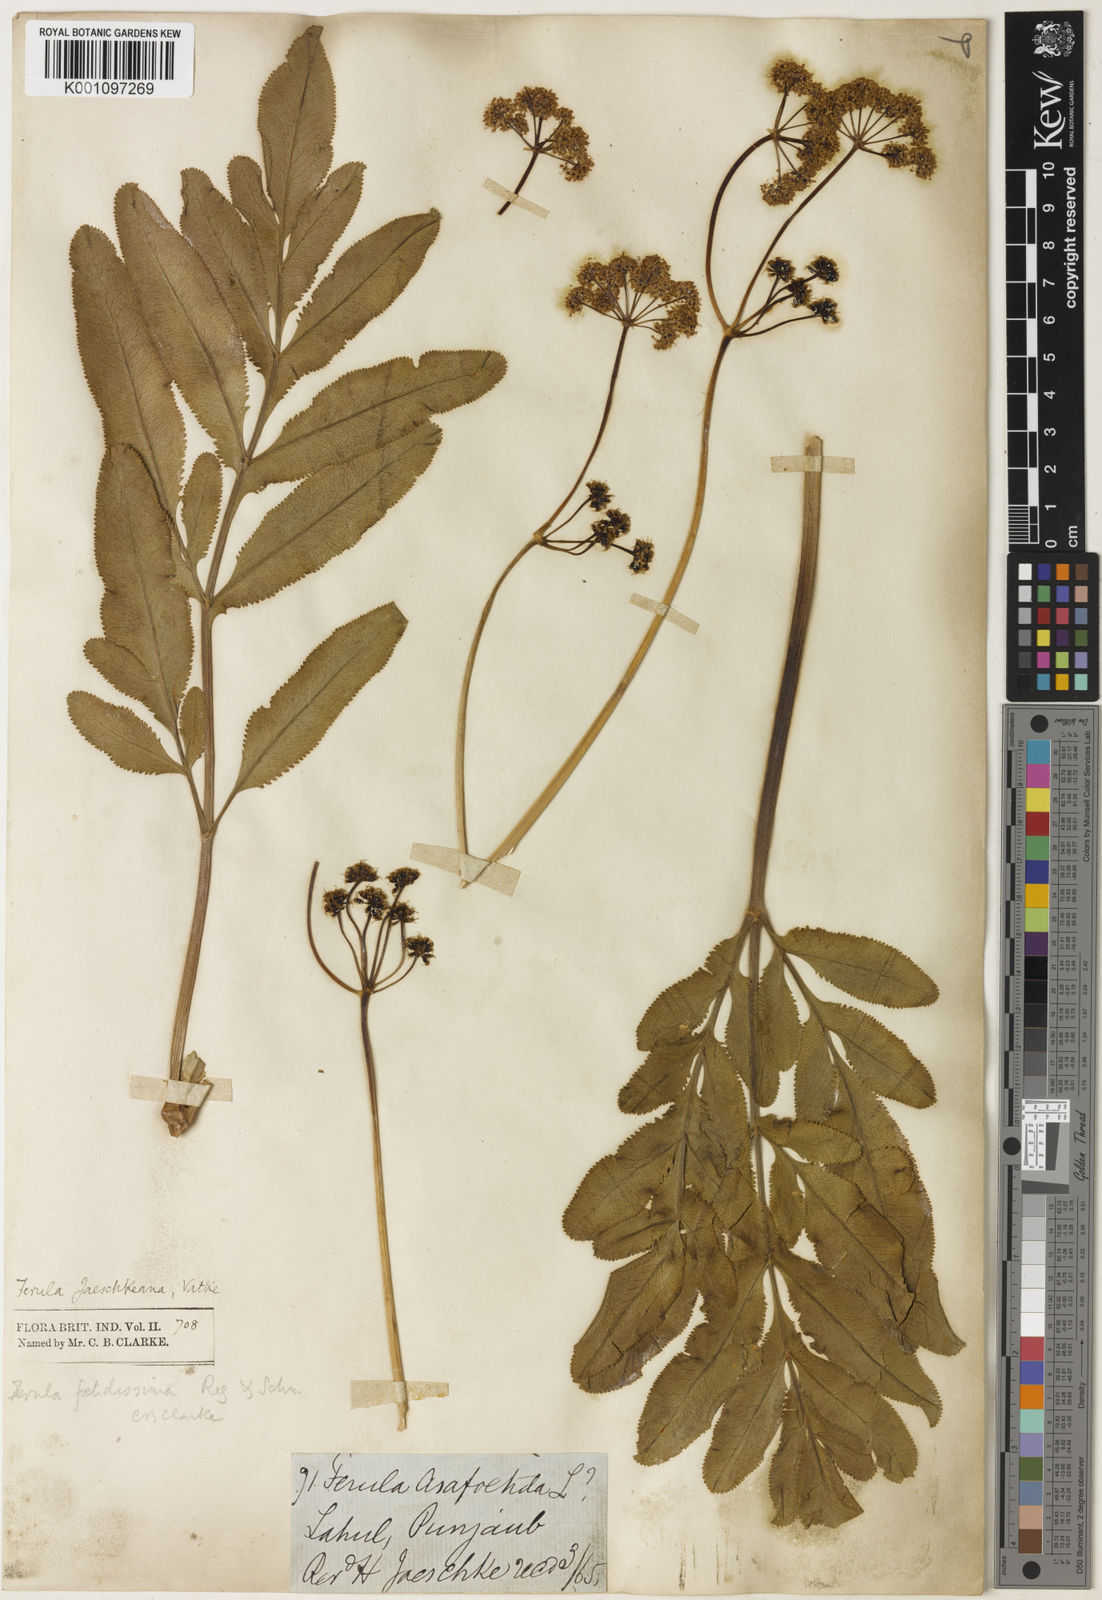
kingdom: Plantae
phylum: Tracheophyta
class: Magnoliopsida
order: Apiales
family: Apiaceae
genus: Ferula
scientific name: Ferula jaeschkeana
